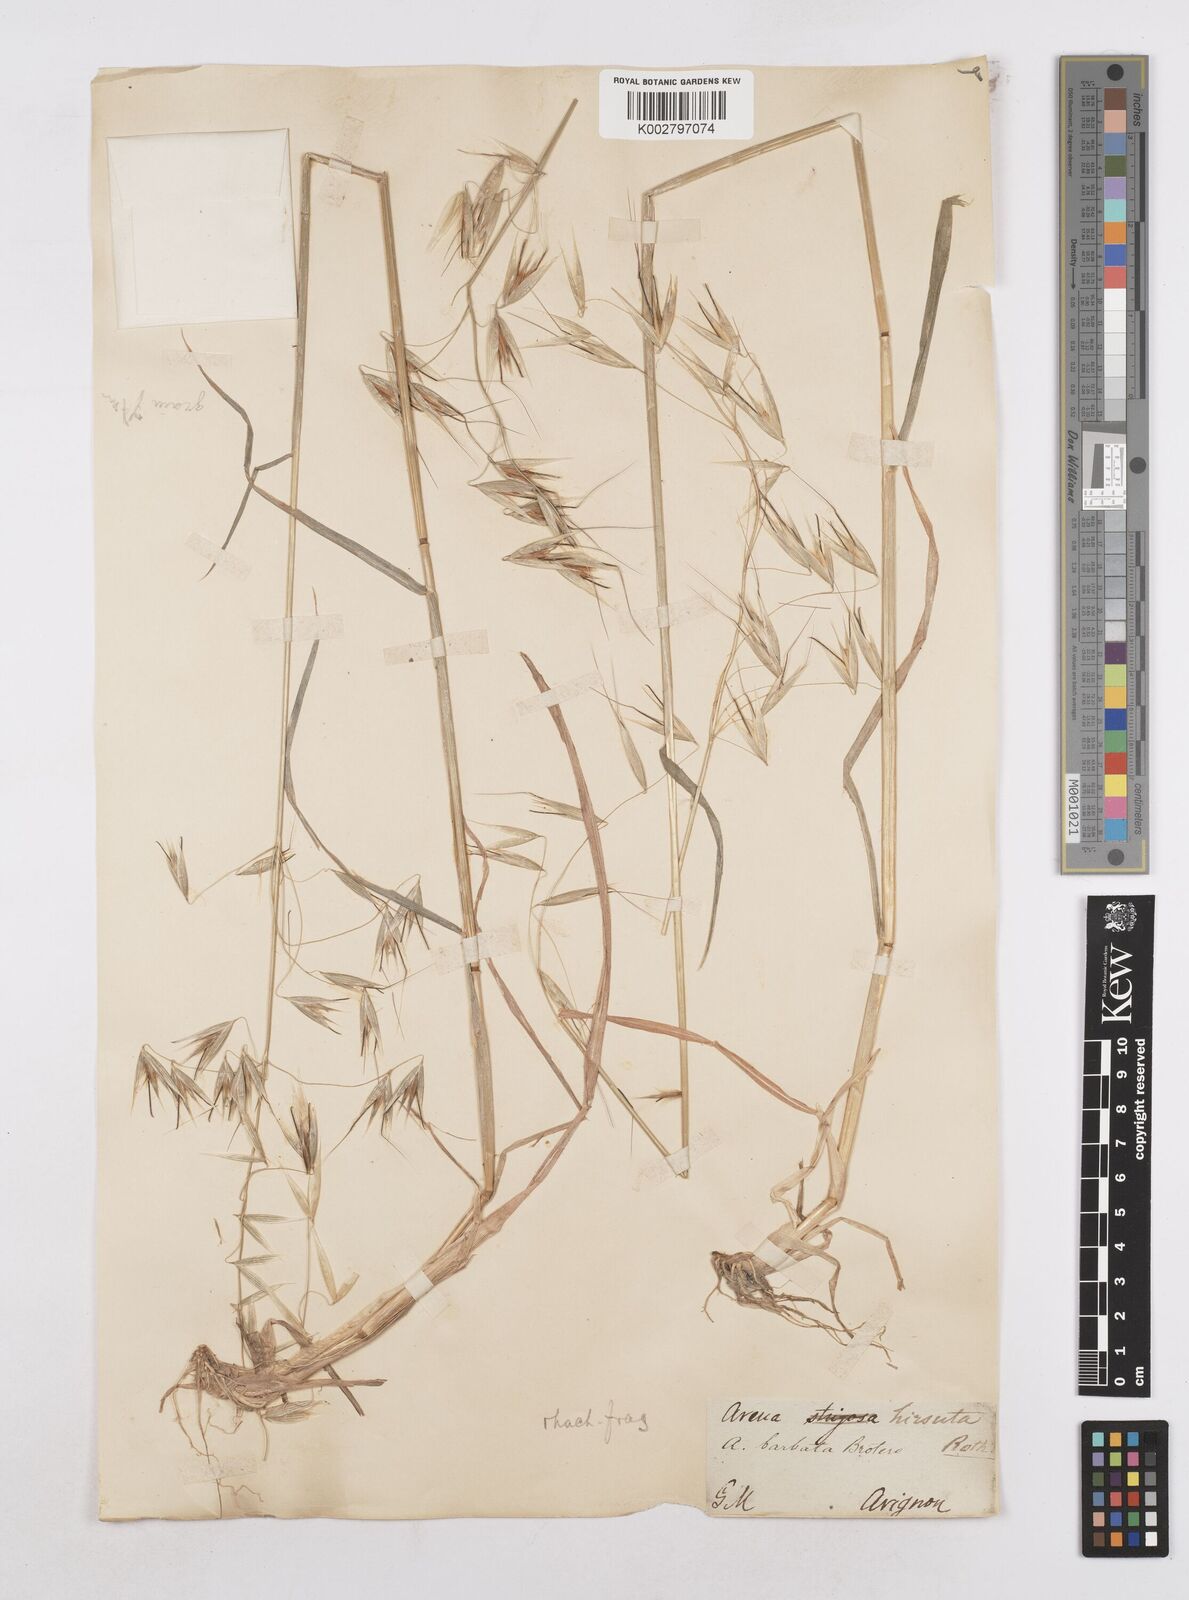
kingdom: Plantae
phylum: Tracheophyta
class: Liliopsida
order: Poales
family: Poaceae
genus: Avena
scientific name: Avena
